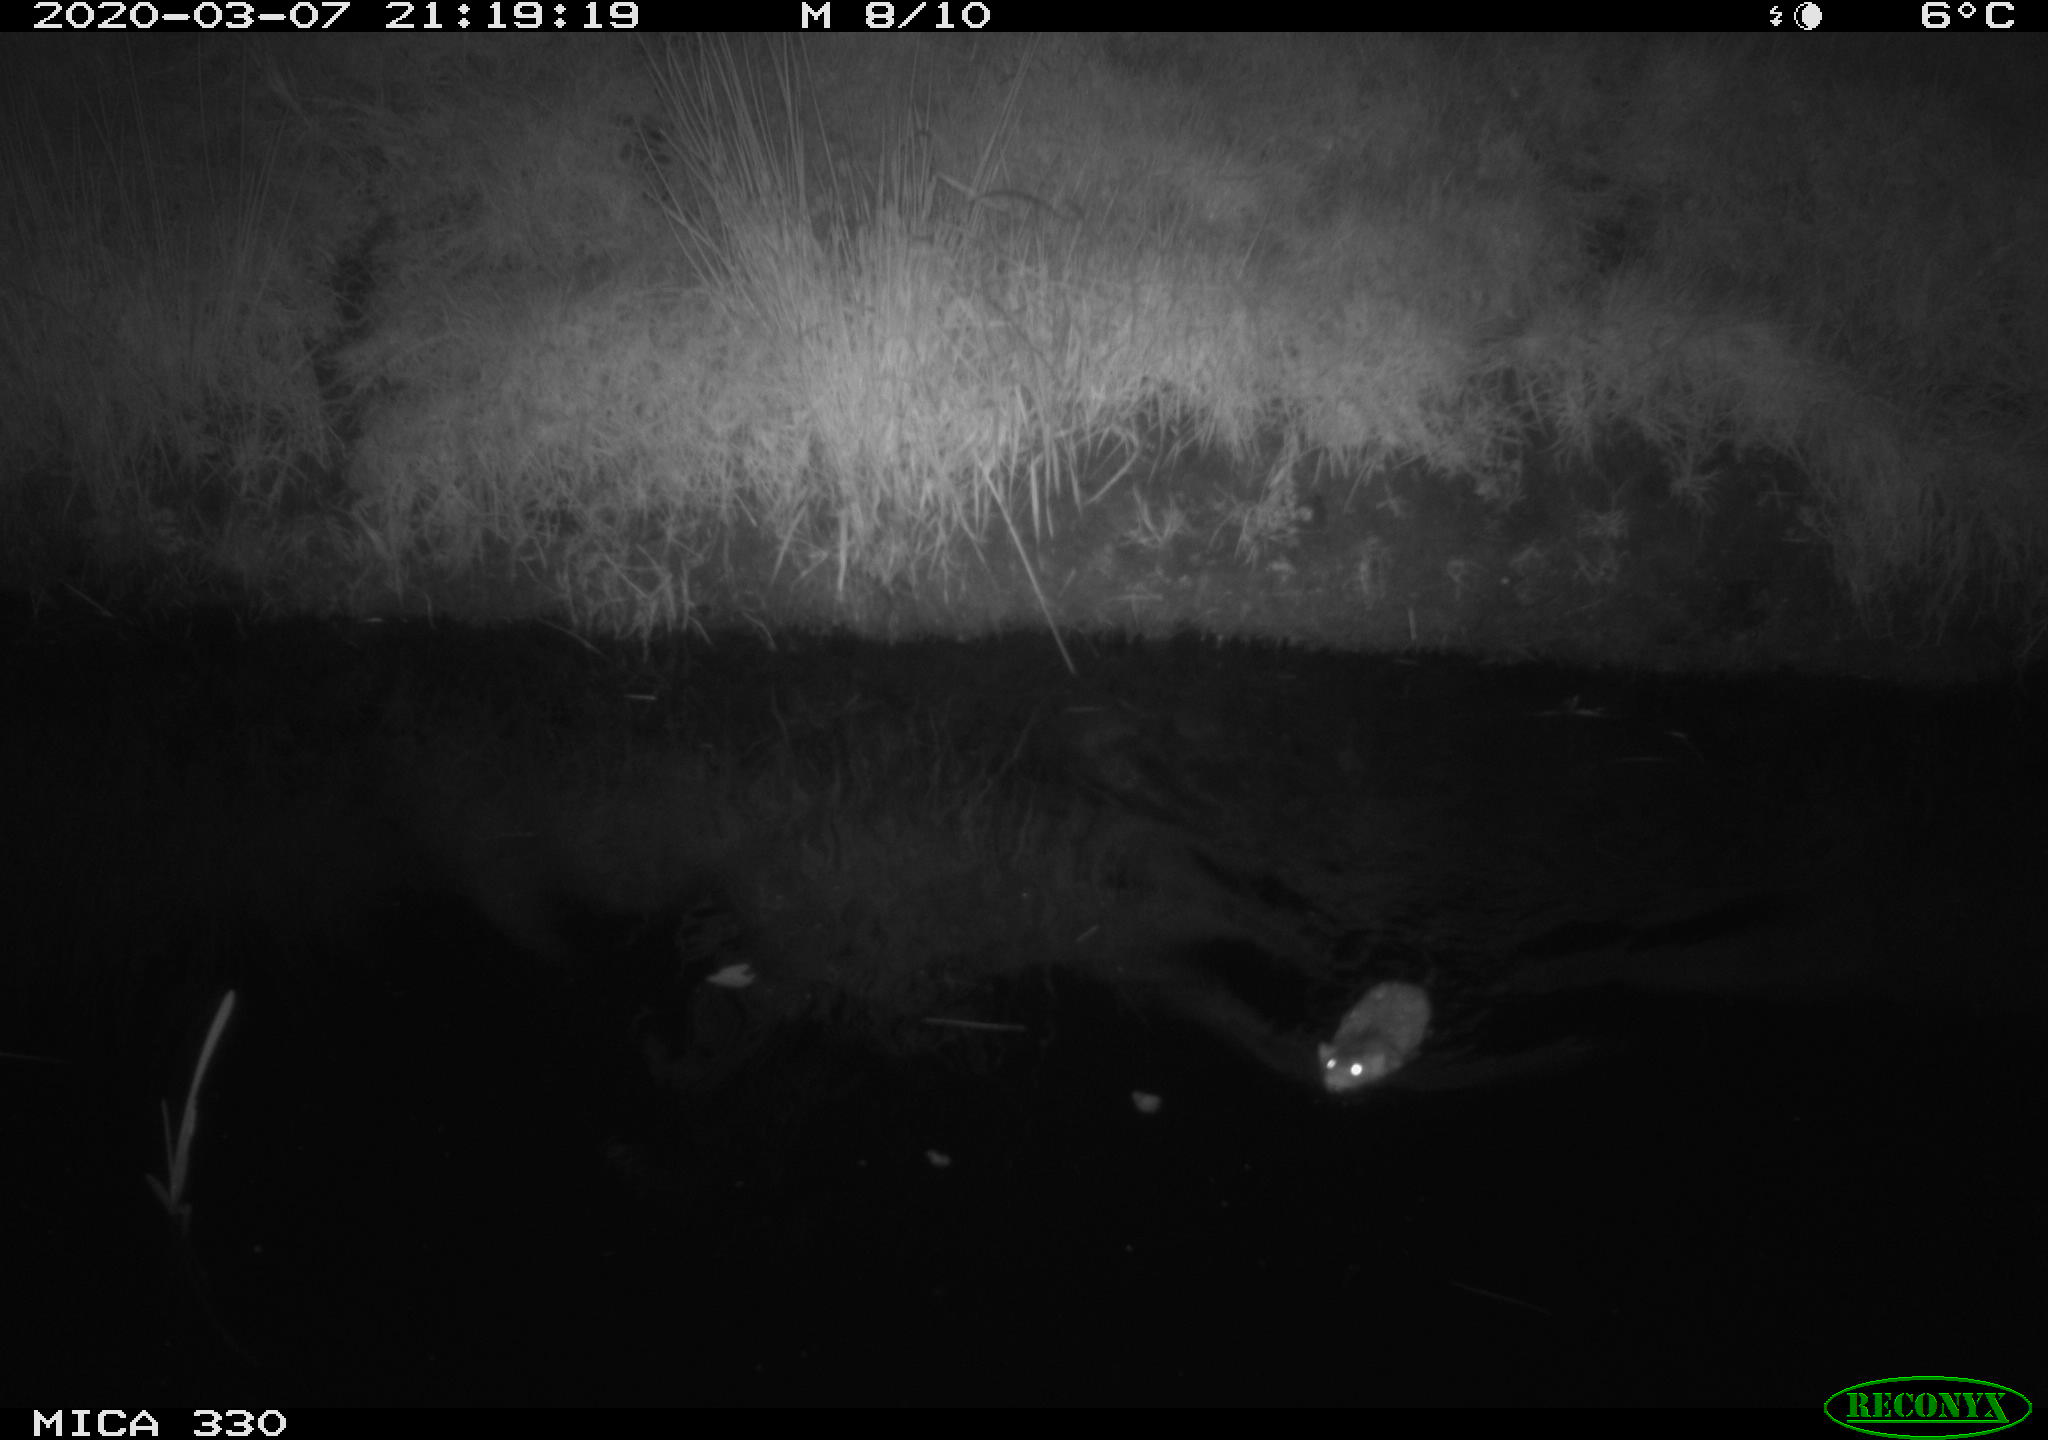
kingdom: Animalia
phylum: Chordata
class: Mammalia
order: Rodentia
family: Muridae
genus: Rattus
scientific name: Rattus norvegicus
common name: Brown rat
